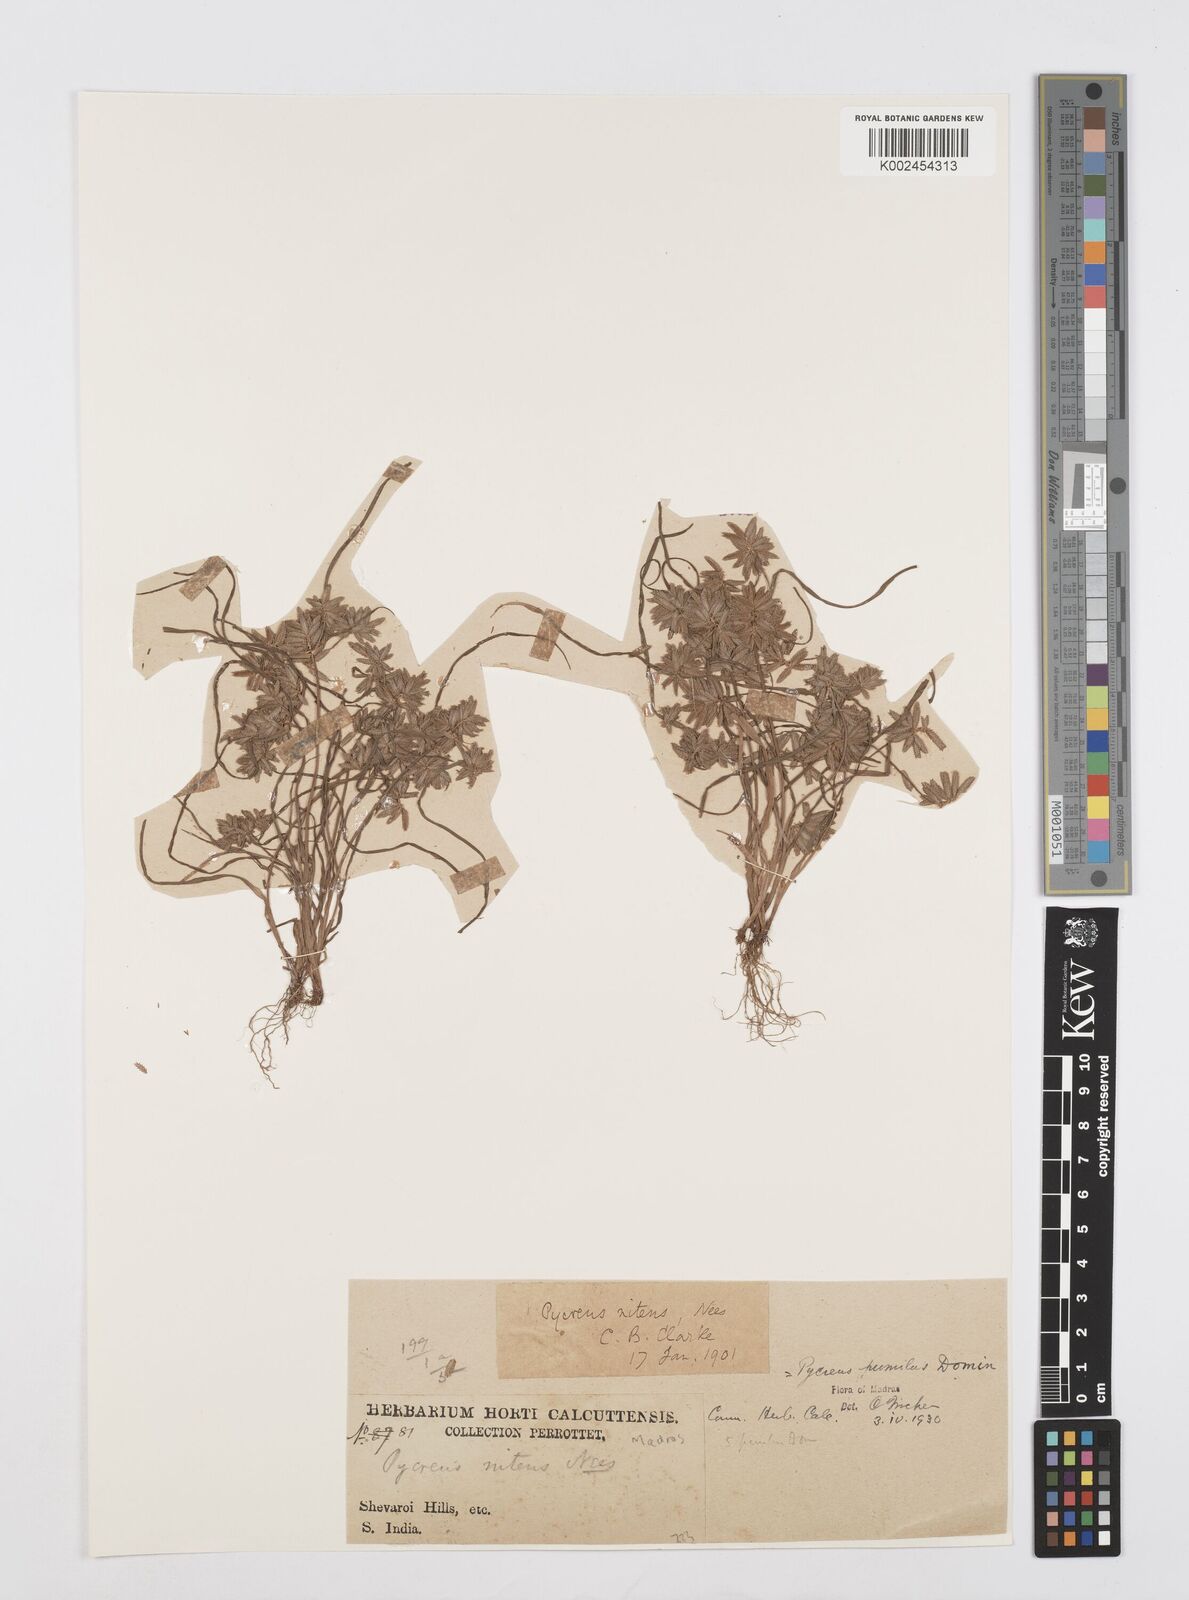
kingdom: Plantae
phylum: Tracheophyta
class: Liliopsida
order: Poales
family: Cyperaceae
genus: Cyperus
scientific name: Cyperus pumilus
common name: Low flatsedge
